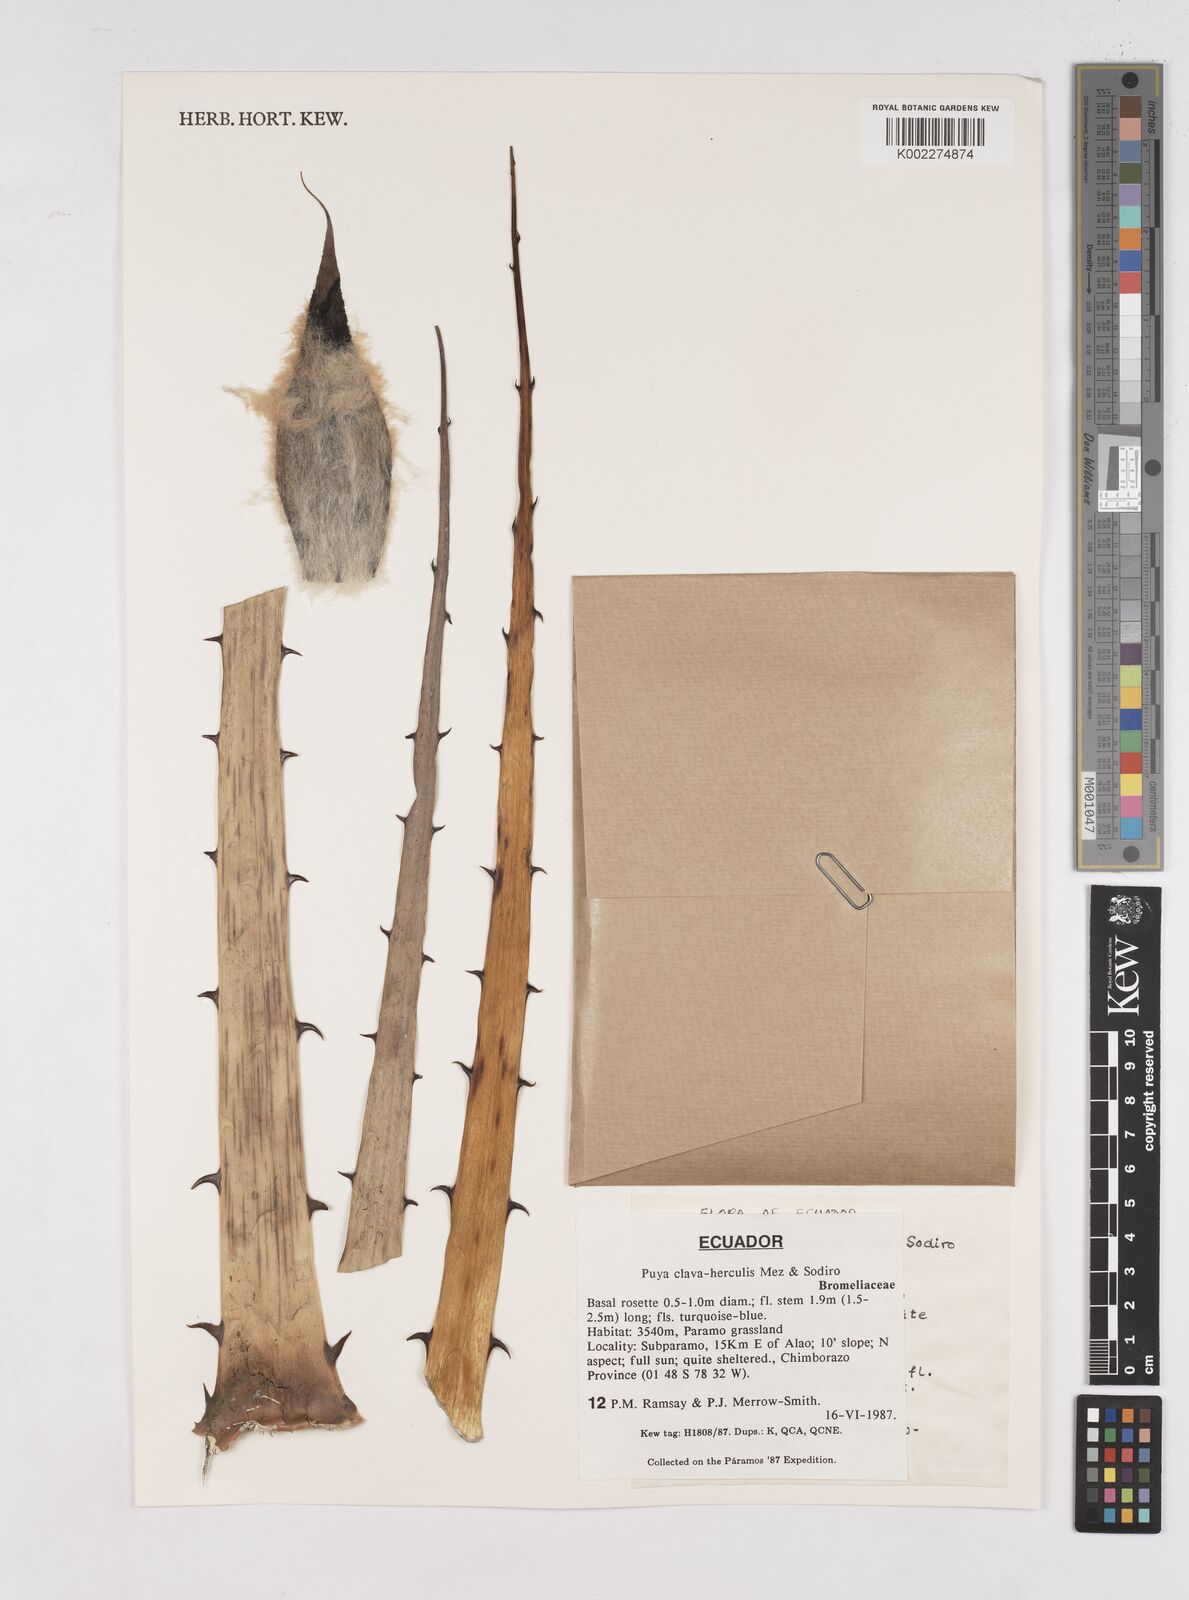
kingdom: Plantae
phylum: Tracheophyta
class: Liliopsida
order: Poales
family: Bromeliaceae
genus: Puya
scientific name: Puya clava-herculis
